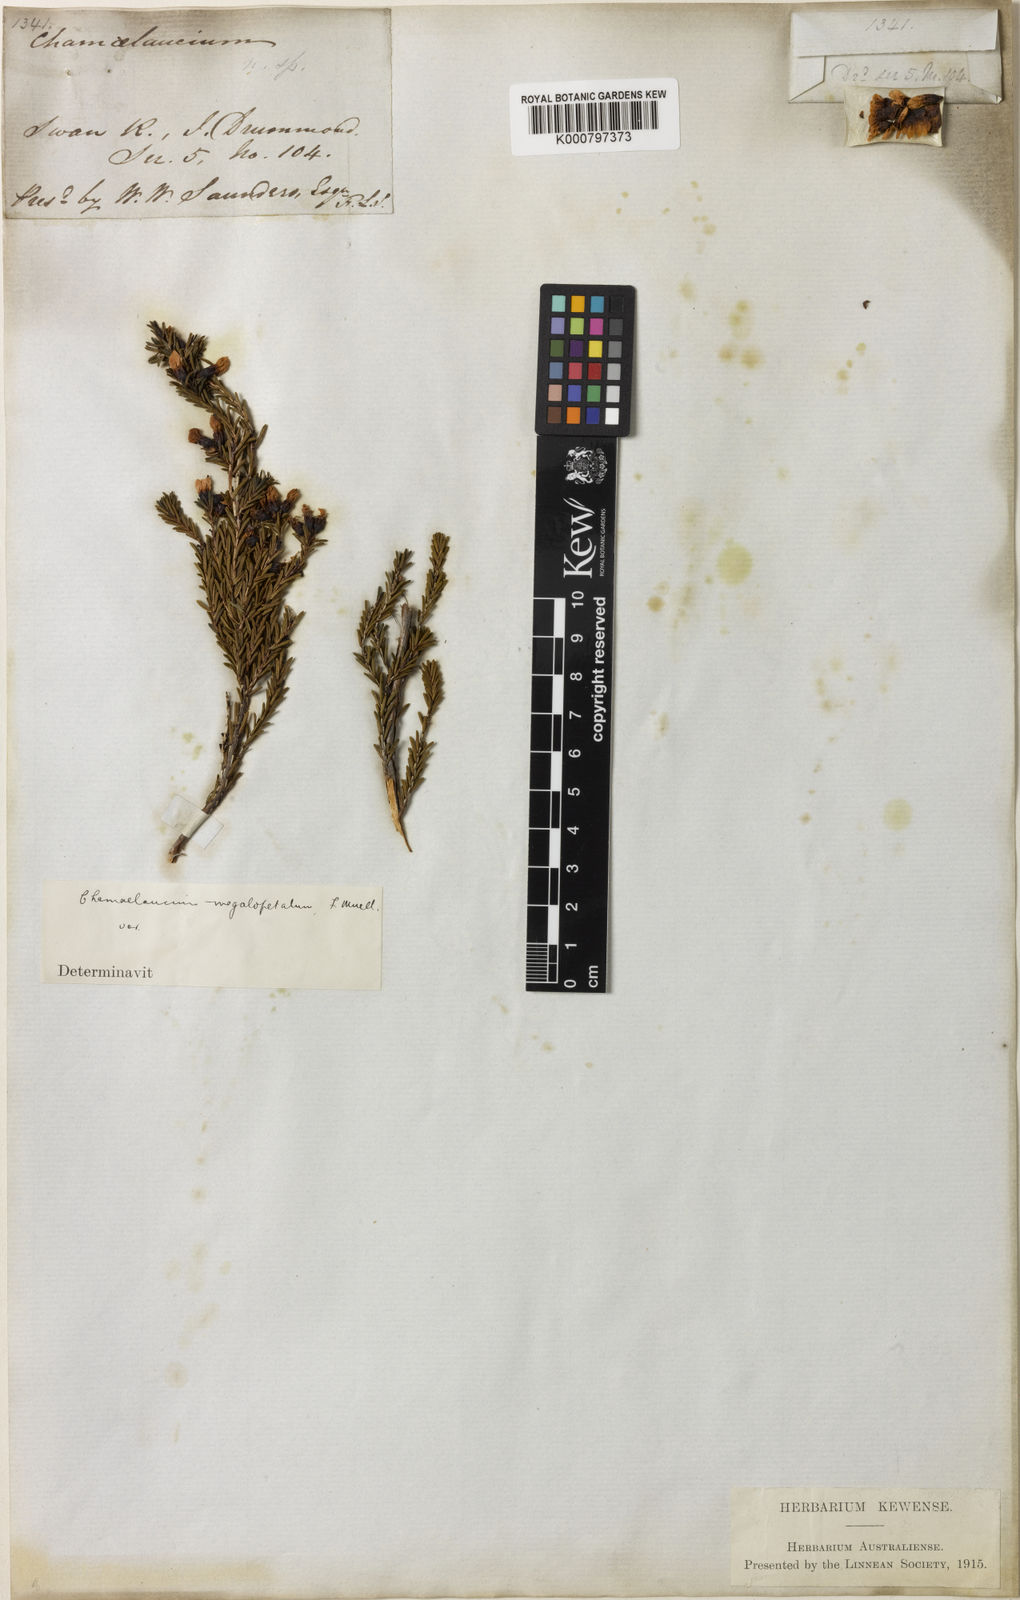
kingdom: Plantae
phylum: Tracheophyta
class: Magnoliopsida
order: Myrtales
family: Myrtaceae
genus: Chamelaucium
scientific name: Chamelaucium
